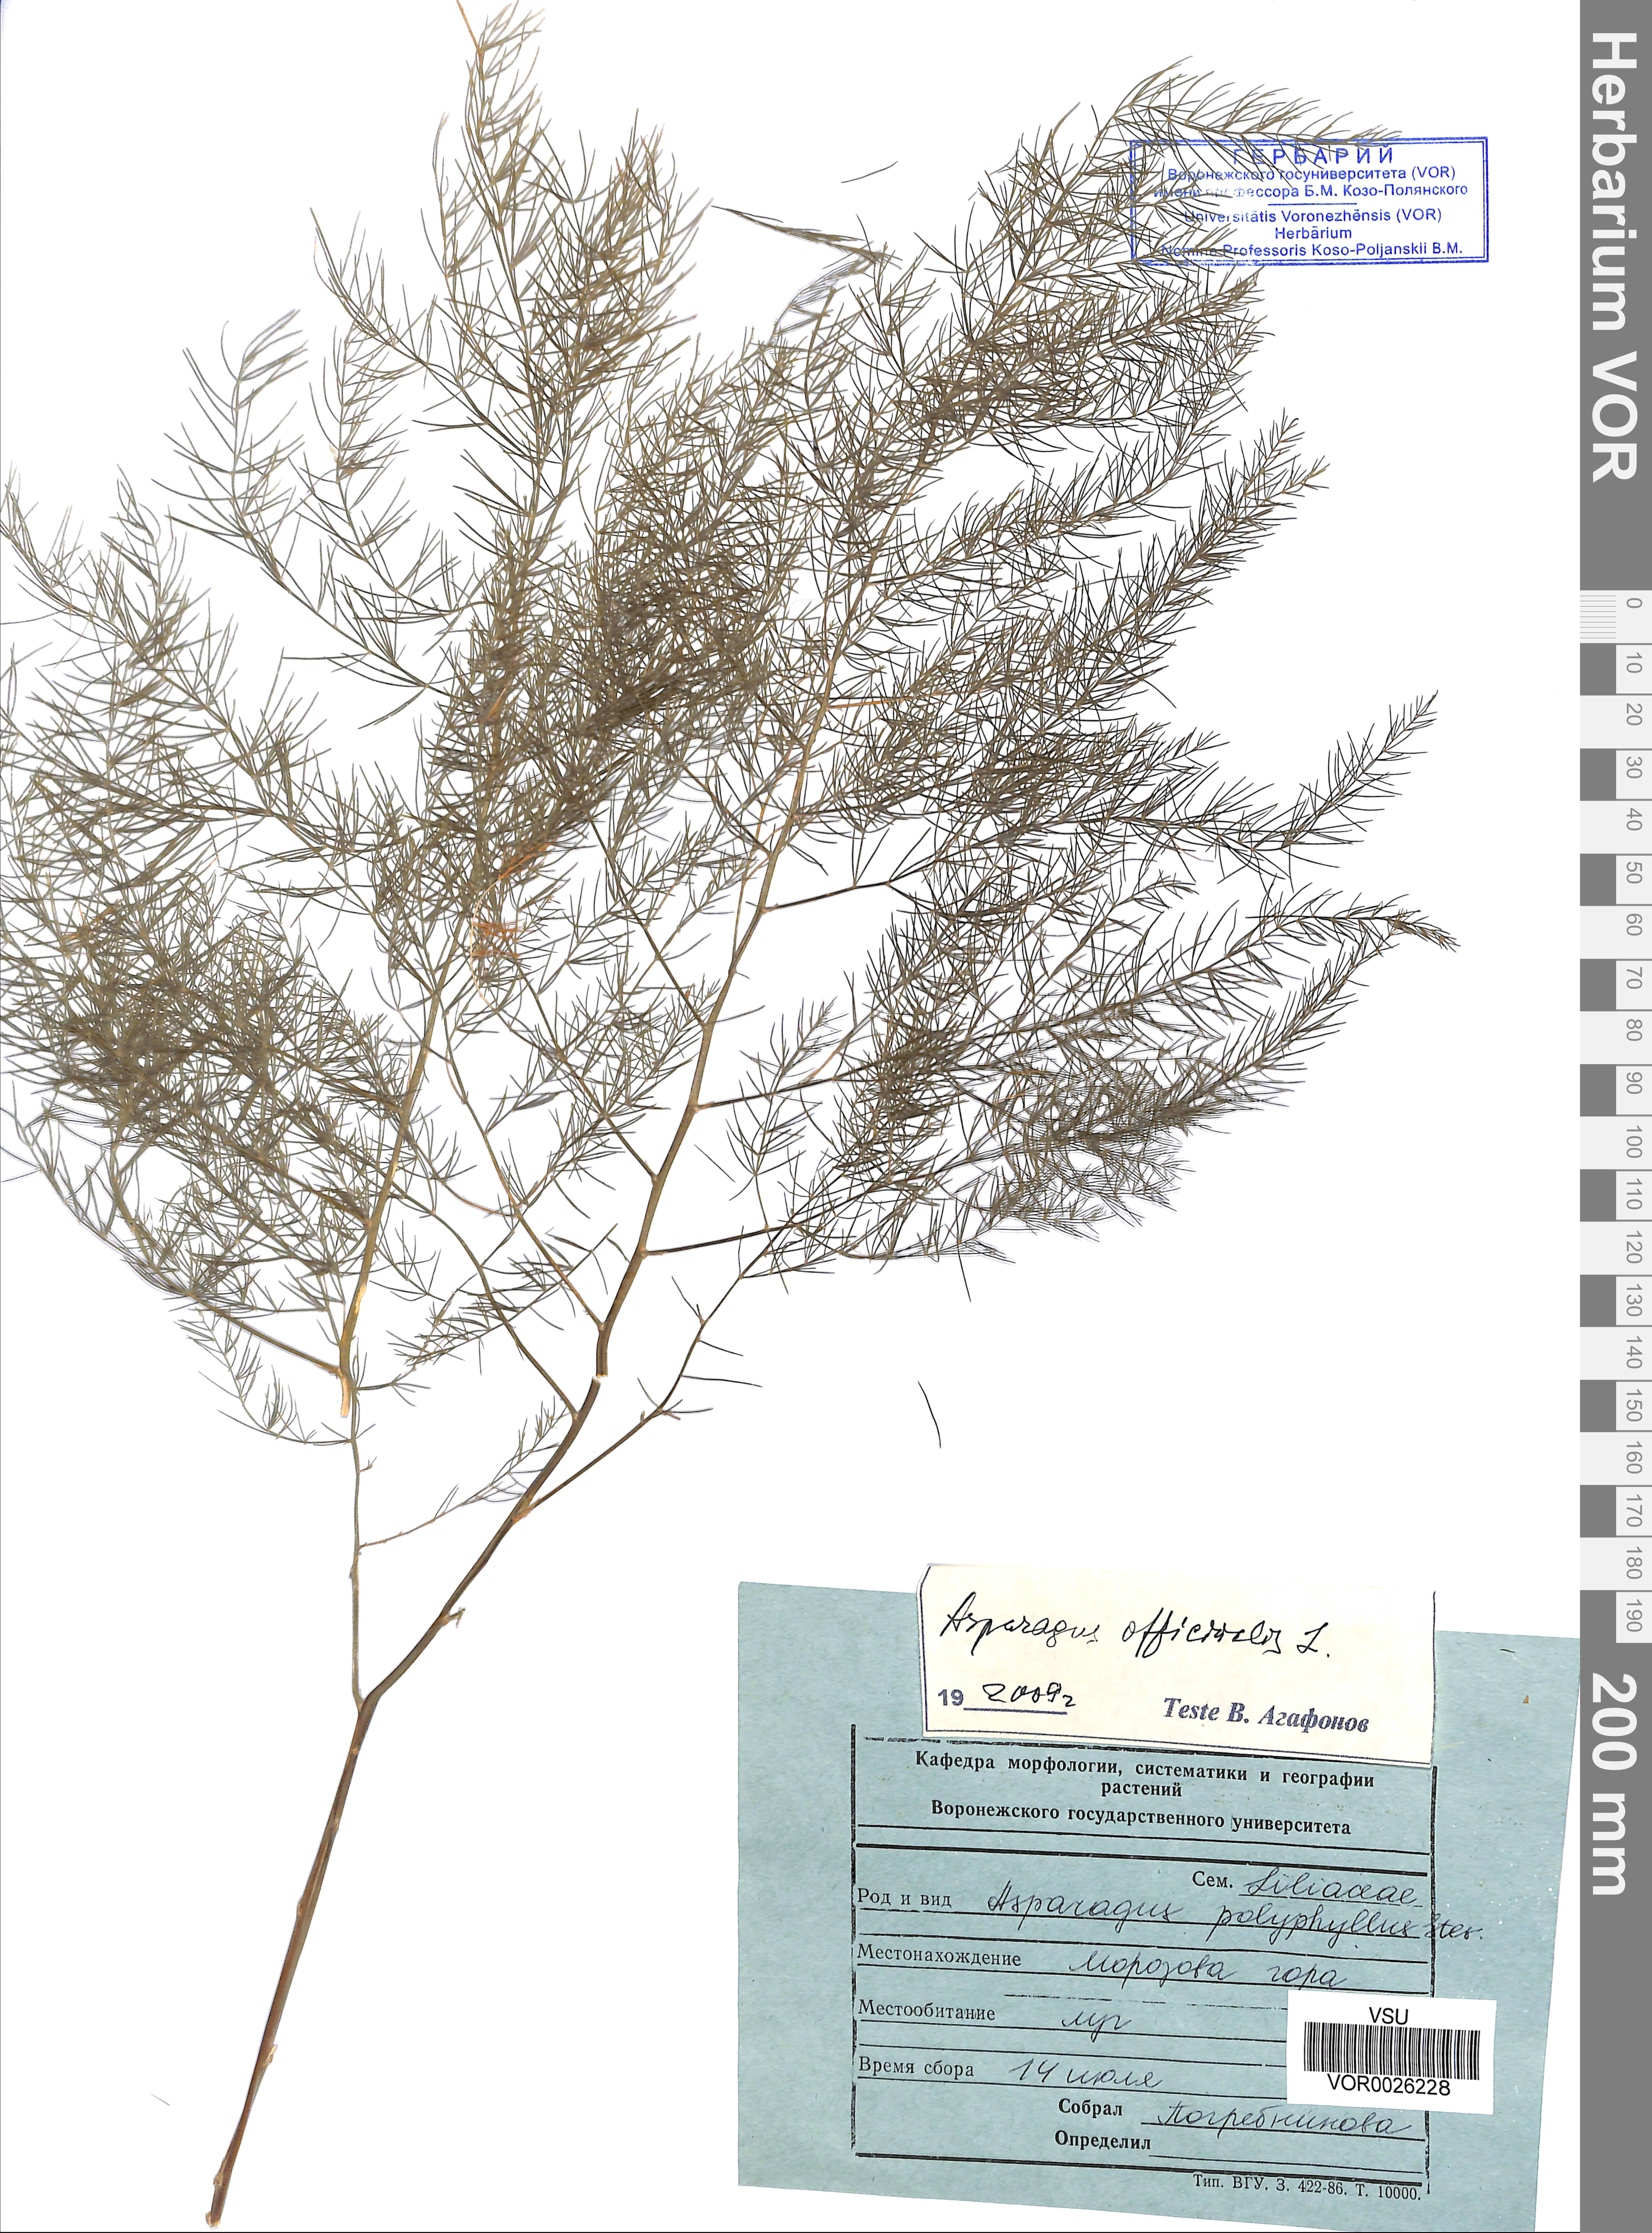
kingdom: Plantae
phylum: Tracheophyta
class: Liliopsida
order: Asparagales
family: Asparagaceae
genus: Asparagus
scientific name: Asparagus officinalis
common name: Garden asparagus
